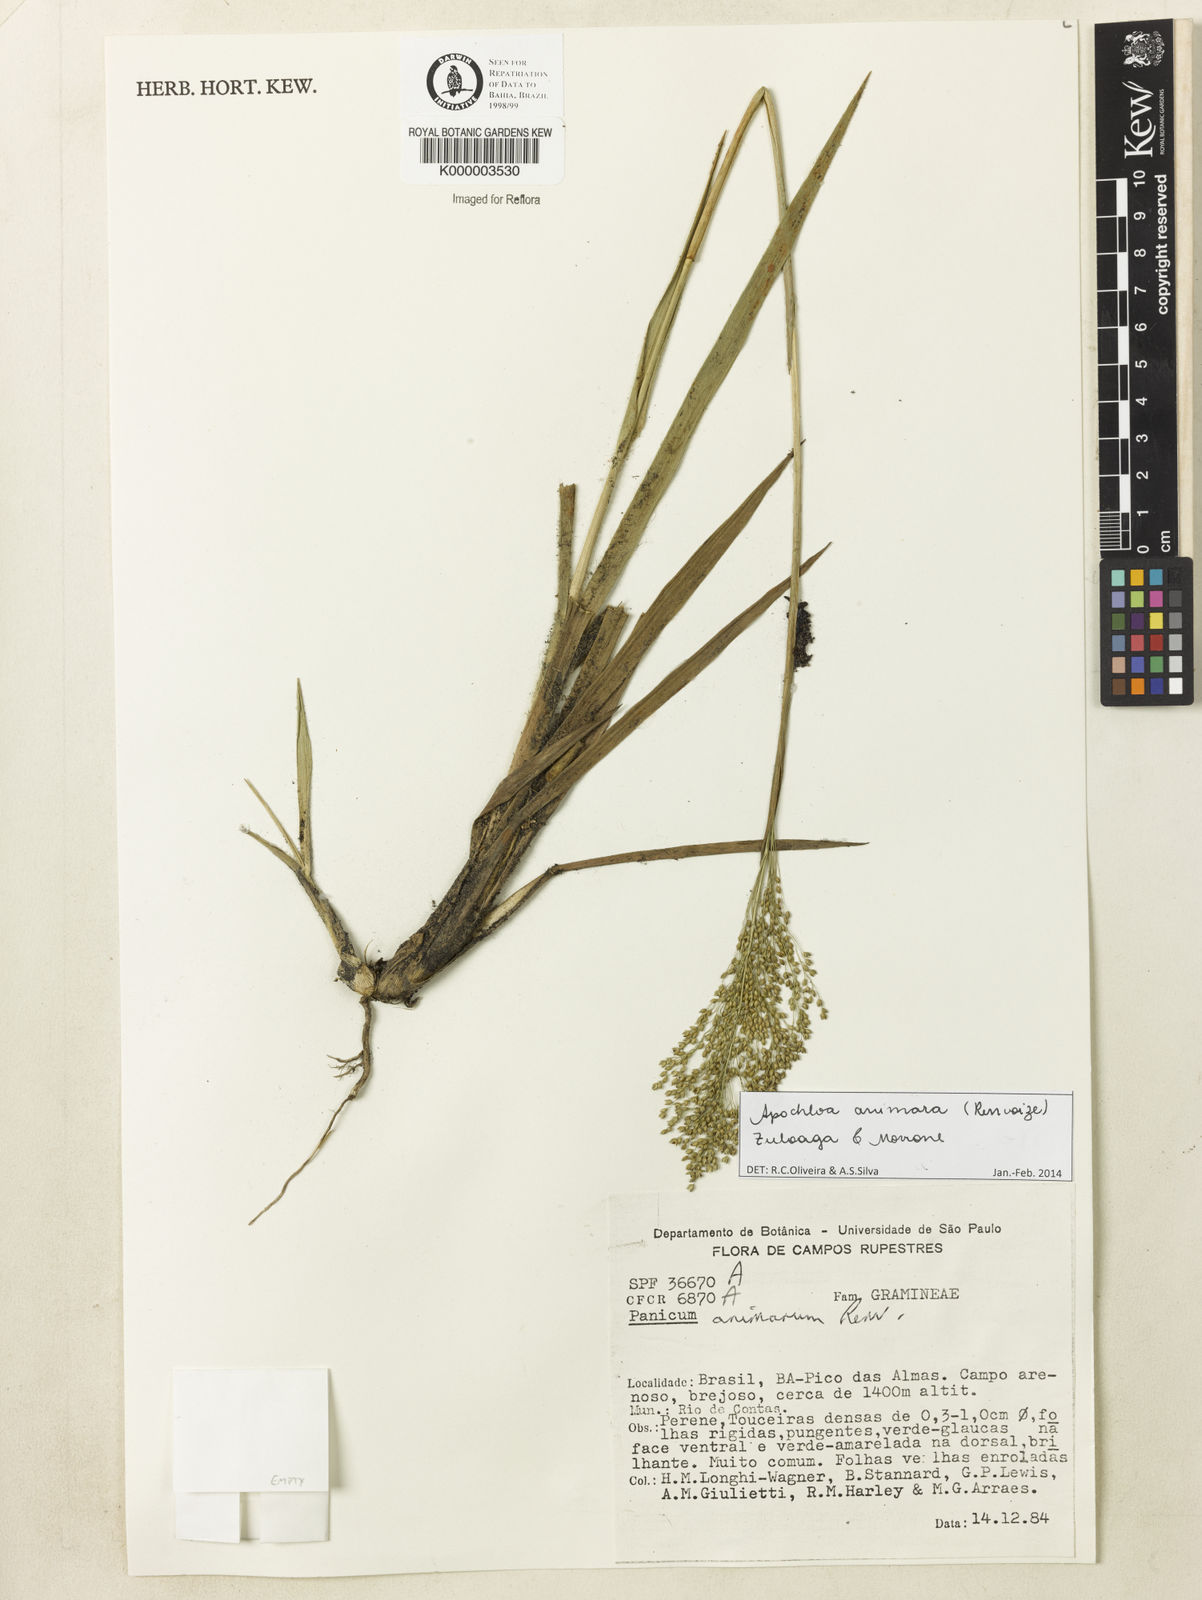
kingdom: Plantae
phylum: Tracheophyta
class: Liliopsida
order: Poales
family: Poaceae
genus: Apochloa
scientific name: Apochloa animara
